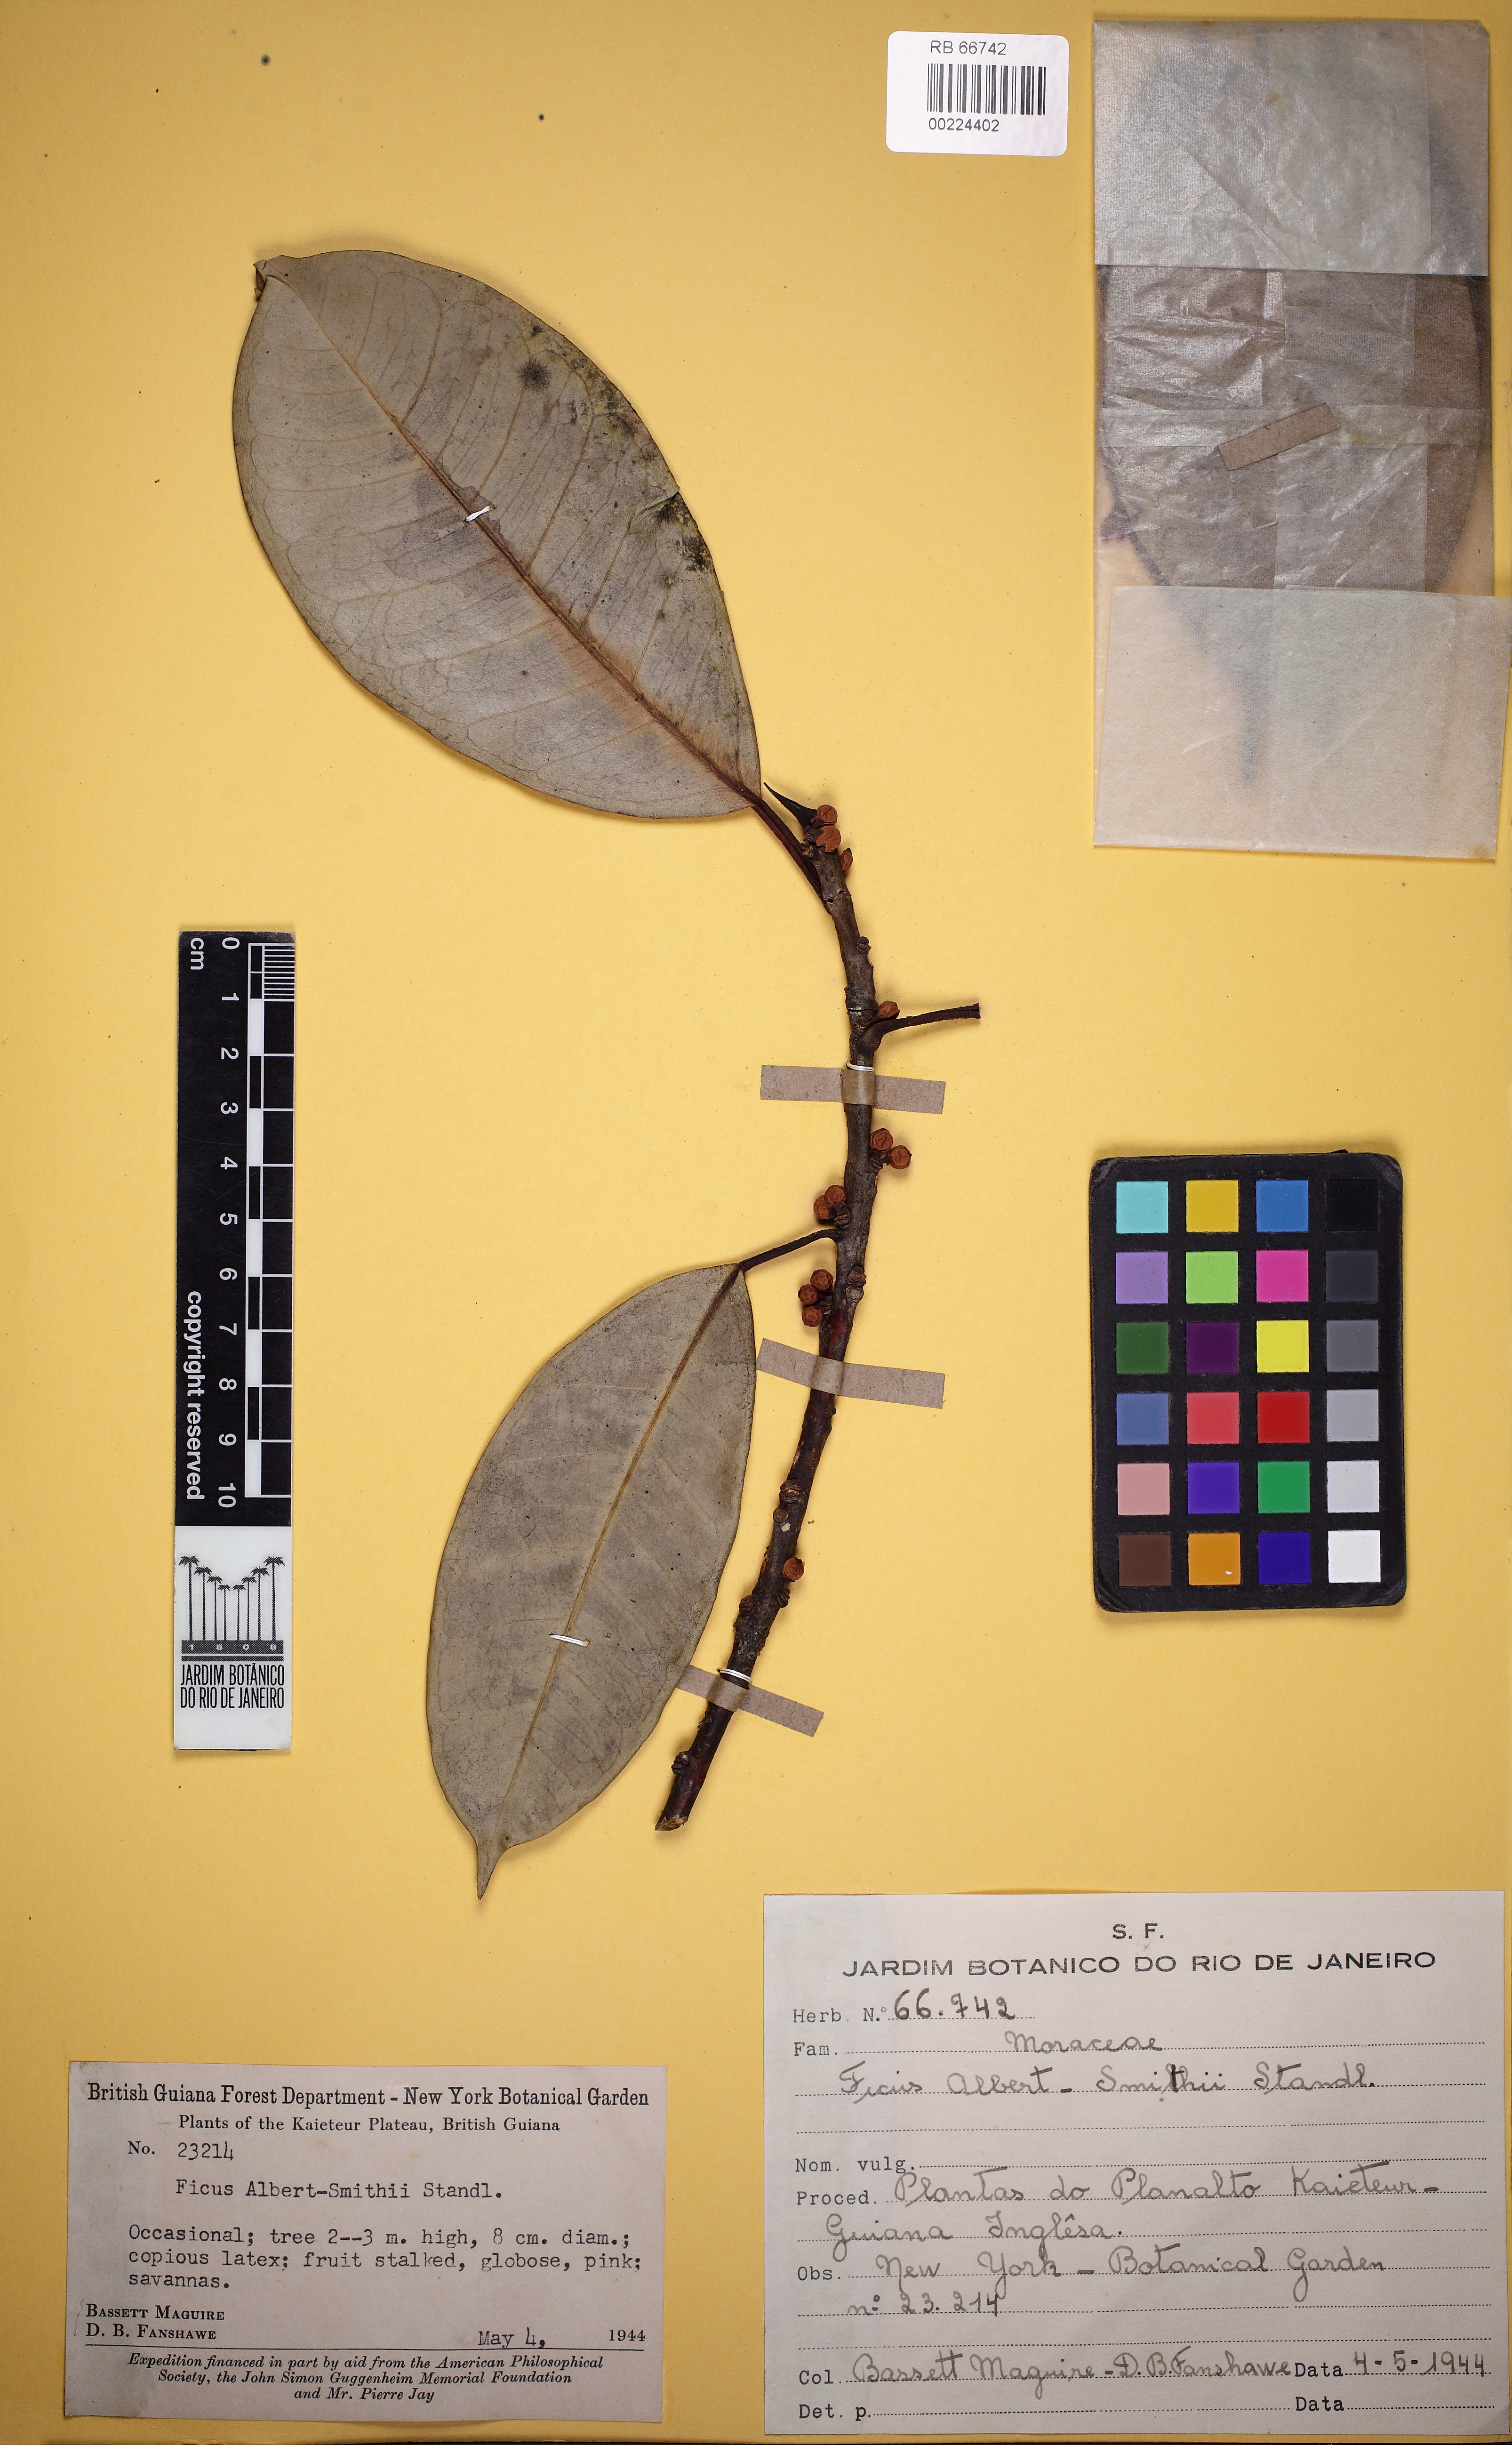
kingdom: Plantae
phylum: Tracheophyta
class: Magnoliopsida
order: Rosales
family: Moraceae
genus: Ficus
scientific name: Ficus mathewsii
